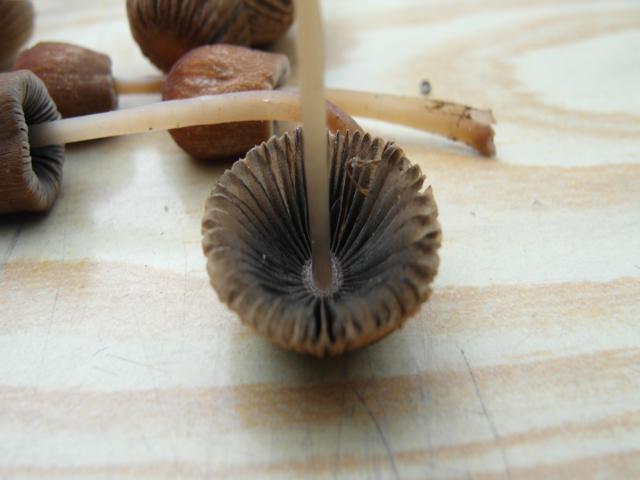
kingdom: Fungi
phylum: Basidiomycota
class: Agaricomycetes
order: Agaricales
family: Psathyrellaceae
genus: Parasola
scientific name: Parasola schroeteri
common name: bredsporet hjulhat
